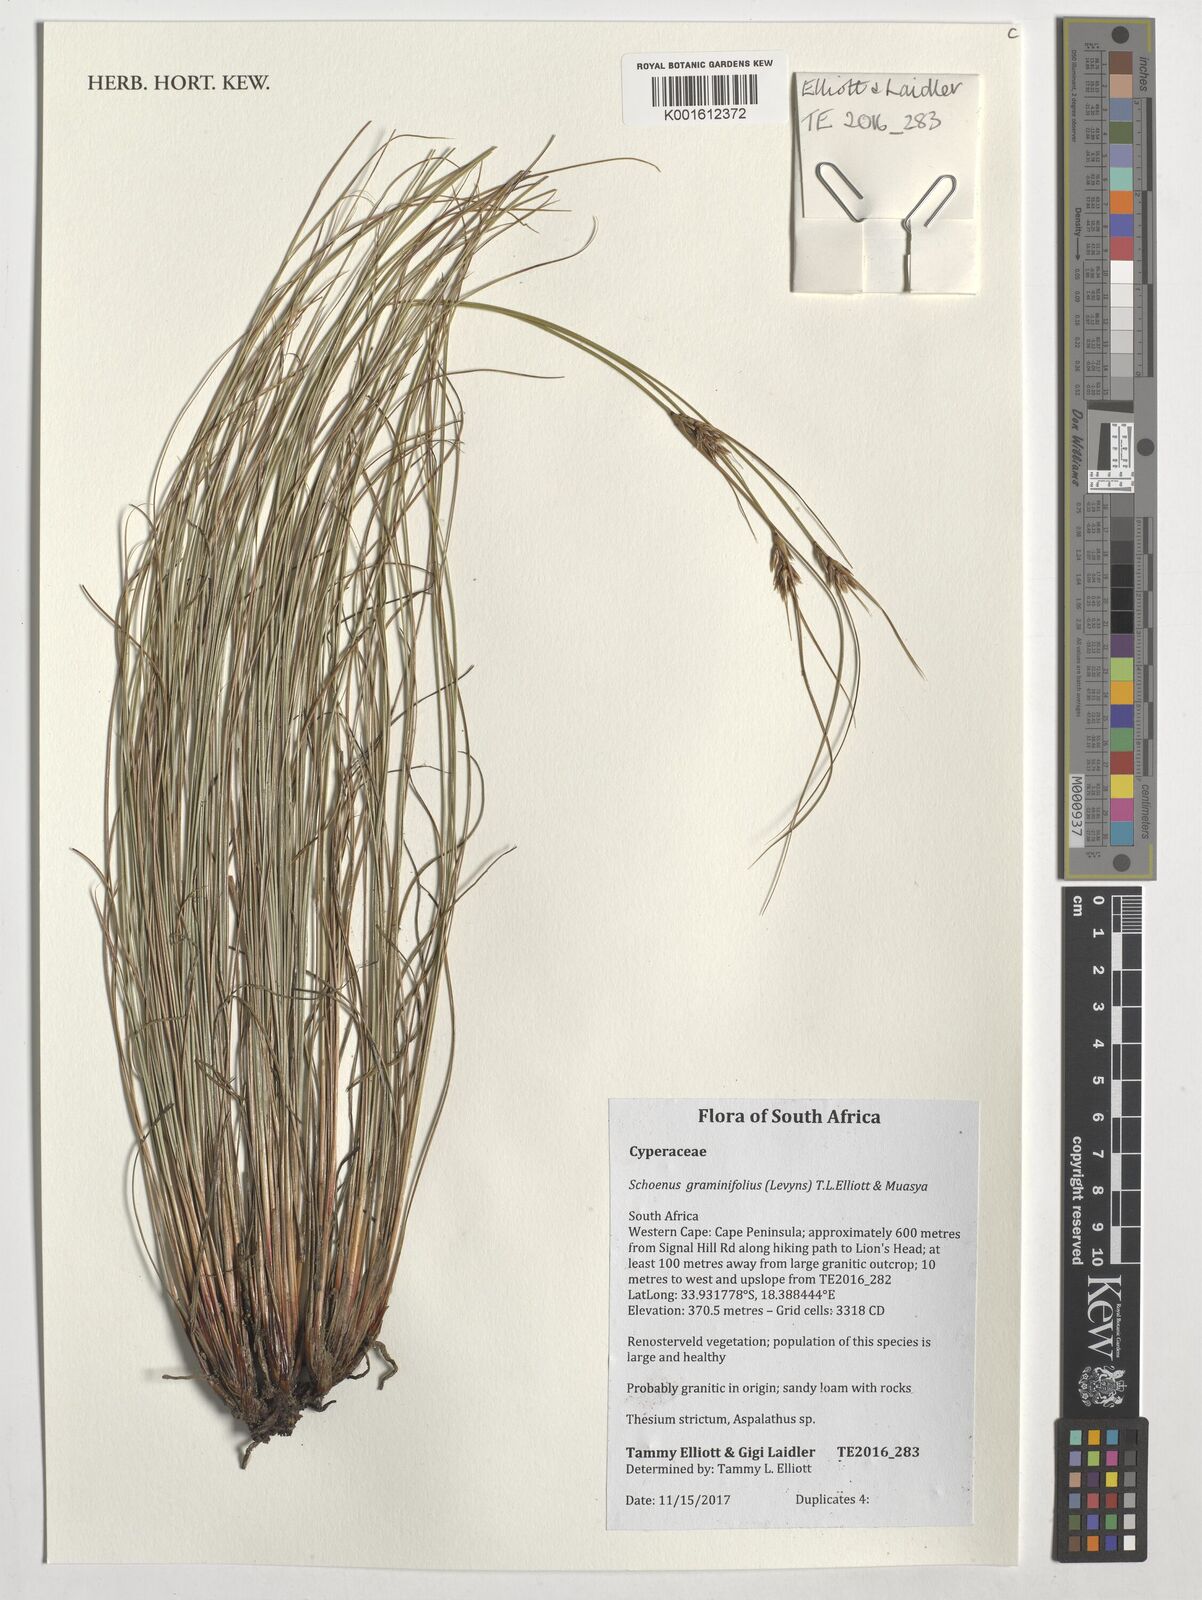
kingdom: Plantae
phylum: Tracheophyta
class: Liliopsida
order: Poales
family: Cyperaceae
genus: Schoenus
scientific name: Schoenus graminifolius
